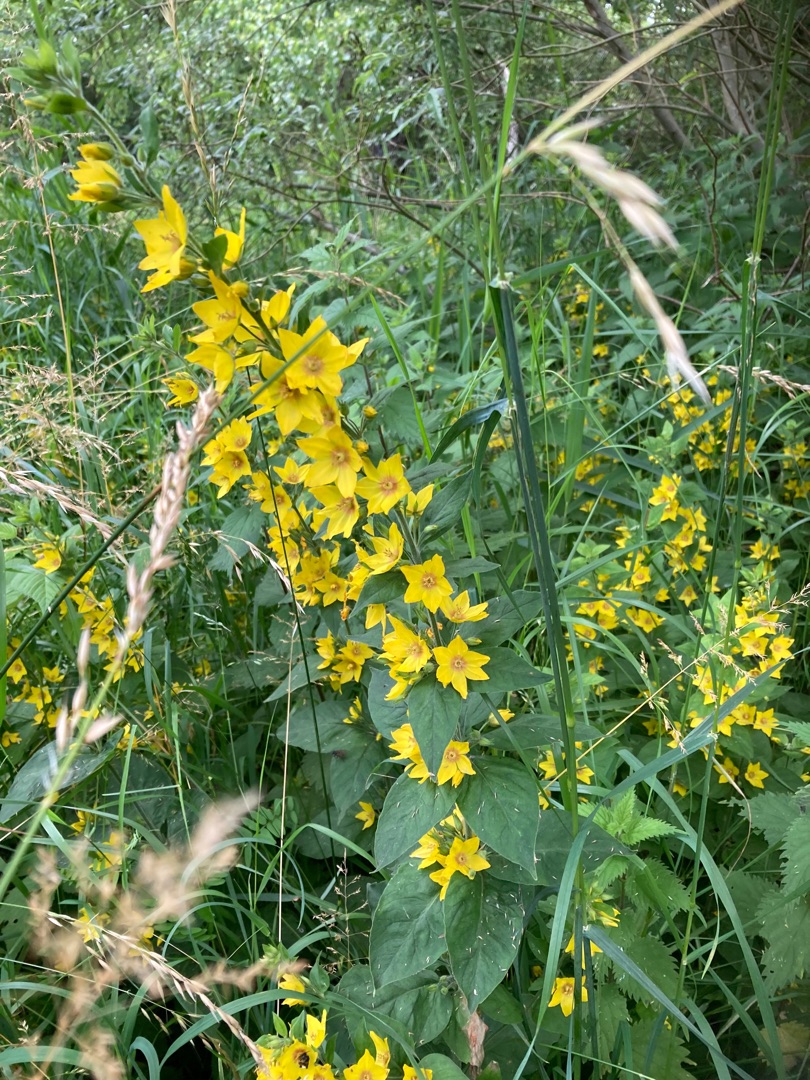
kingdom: Plantae
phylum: Tracheophyta
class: Magnoliopsida
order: Ericales
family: Primulaceae
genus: Lysimachia
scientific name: Lysimachia punctata
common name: Prikbladet fredløs
